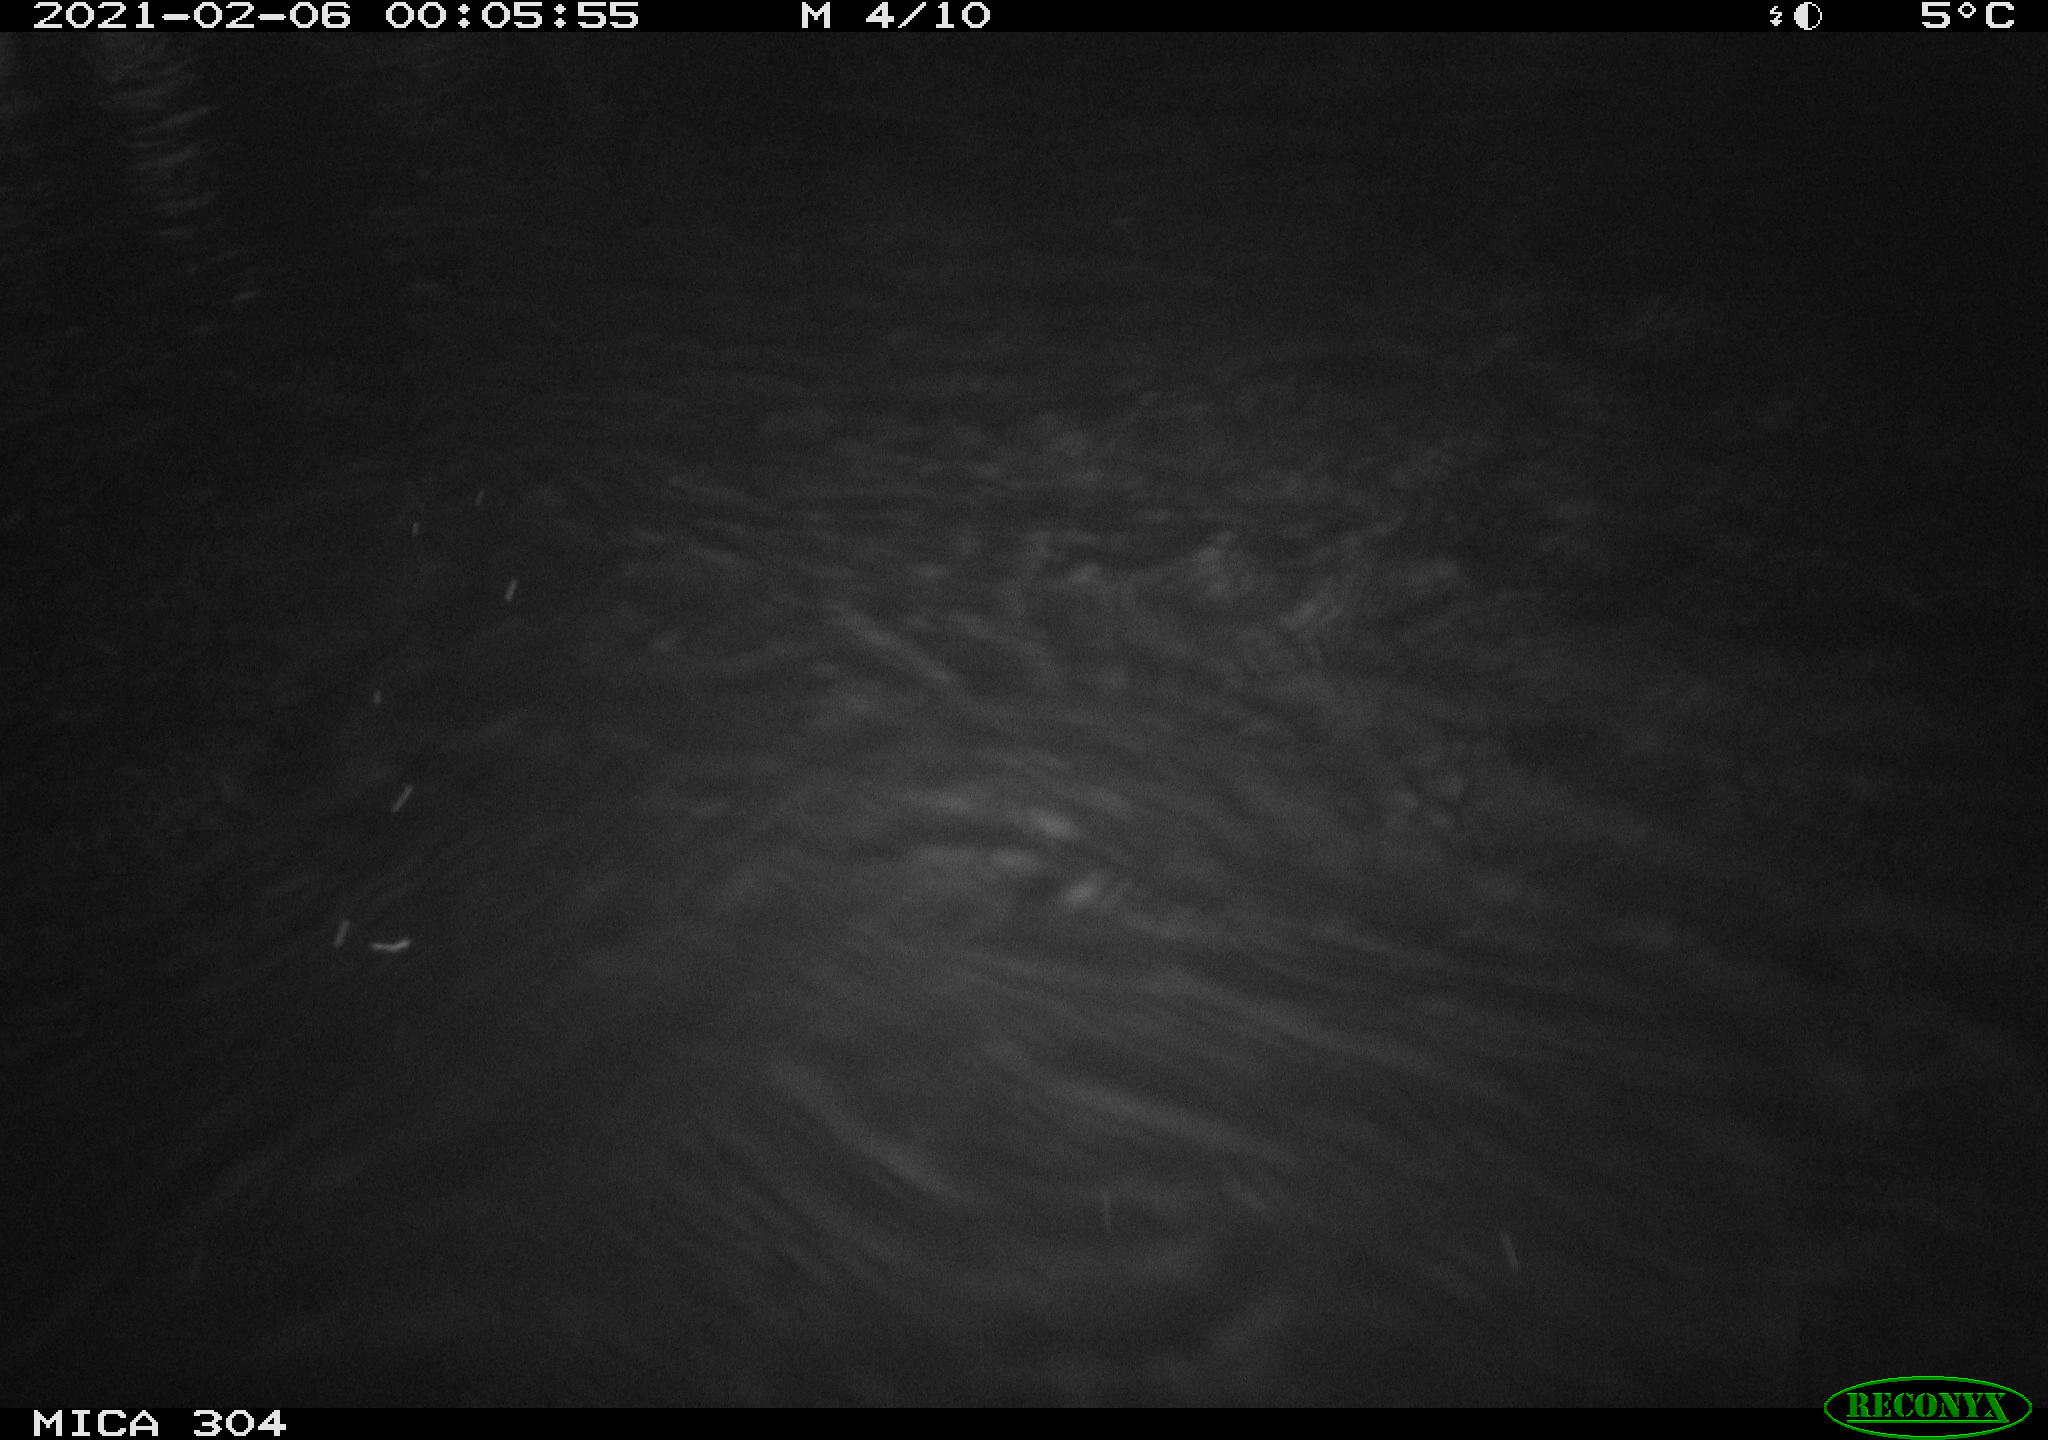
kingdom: Animalia
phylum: Chordata
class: Mammalia
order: Rodentia
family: Cricetidae
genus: Ondatra
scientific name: Ondatra zibethicus
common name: Muskrat
